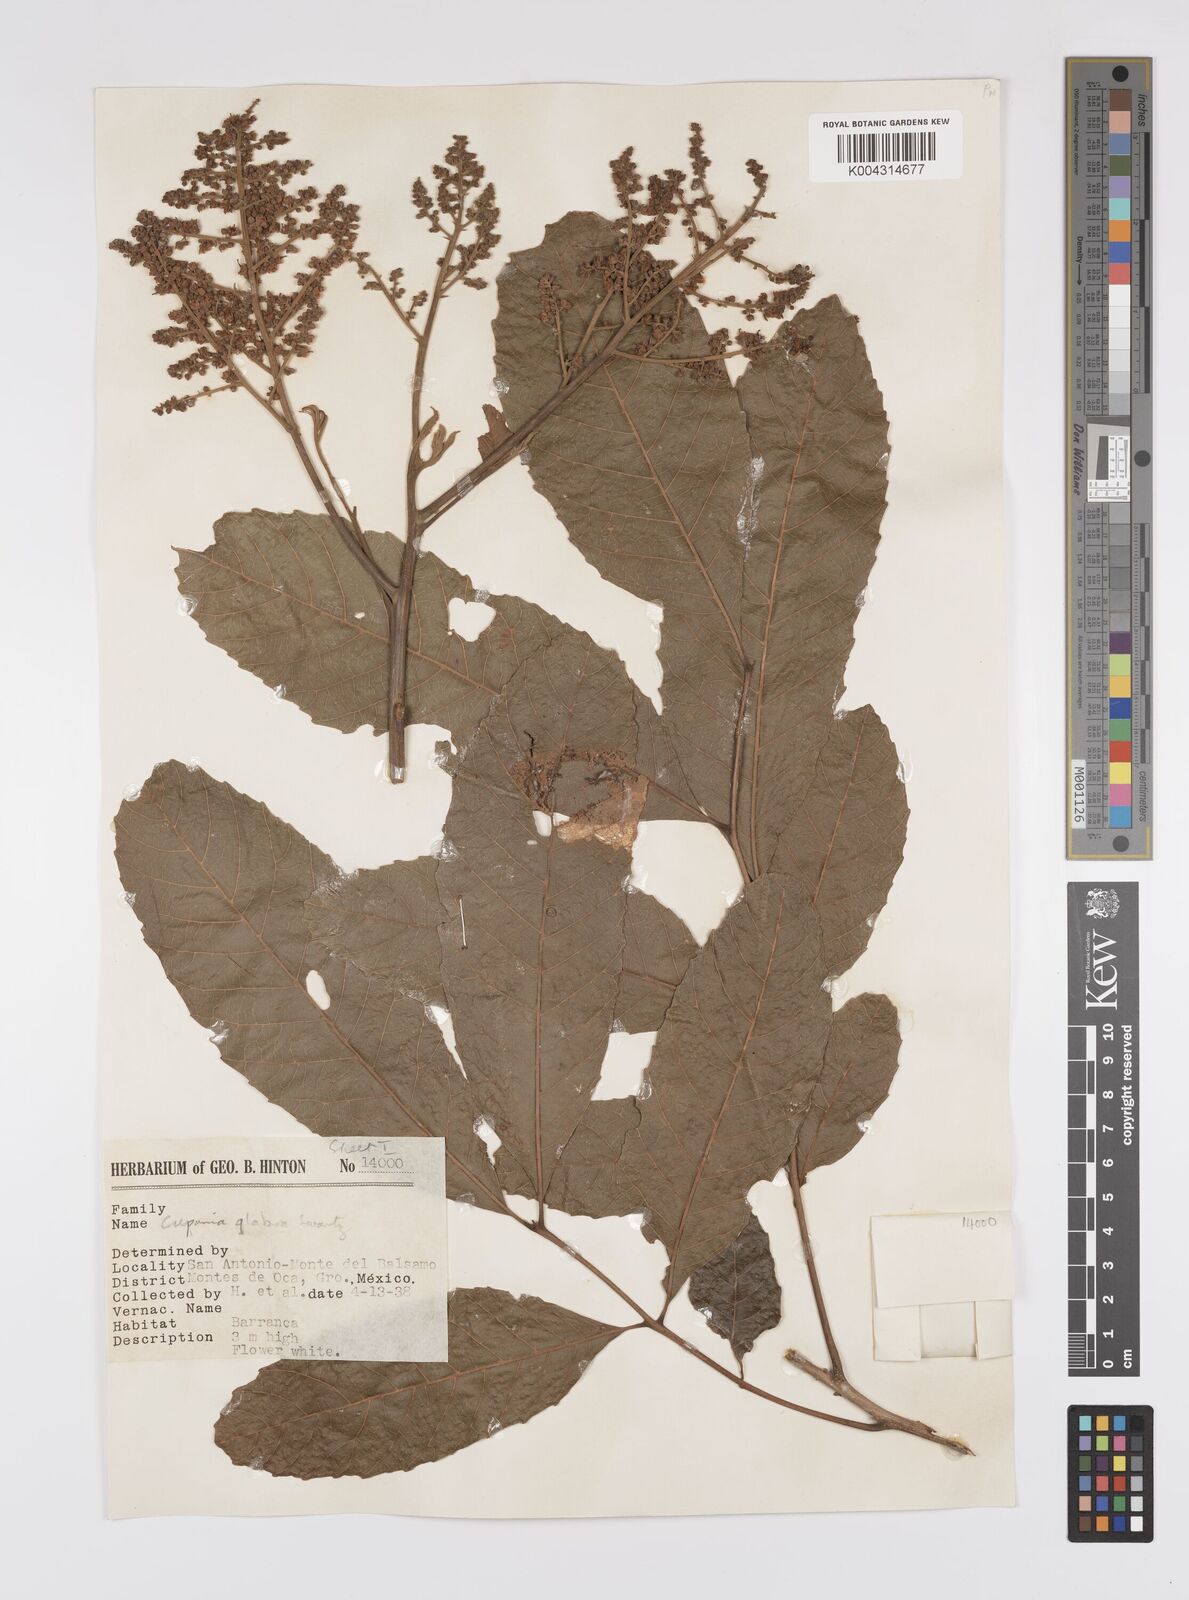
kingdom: Plantae
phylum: Tracheophyta
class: Magnoliopsida
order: Sapindales
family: Sapindaceae
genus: Cupania
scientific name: Cupania
